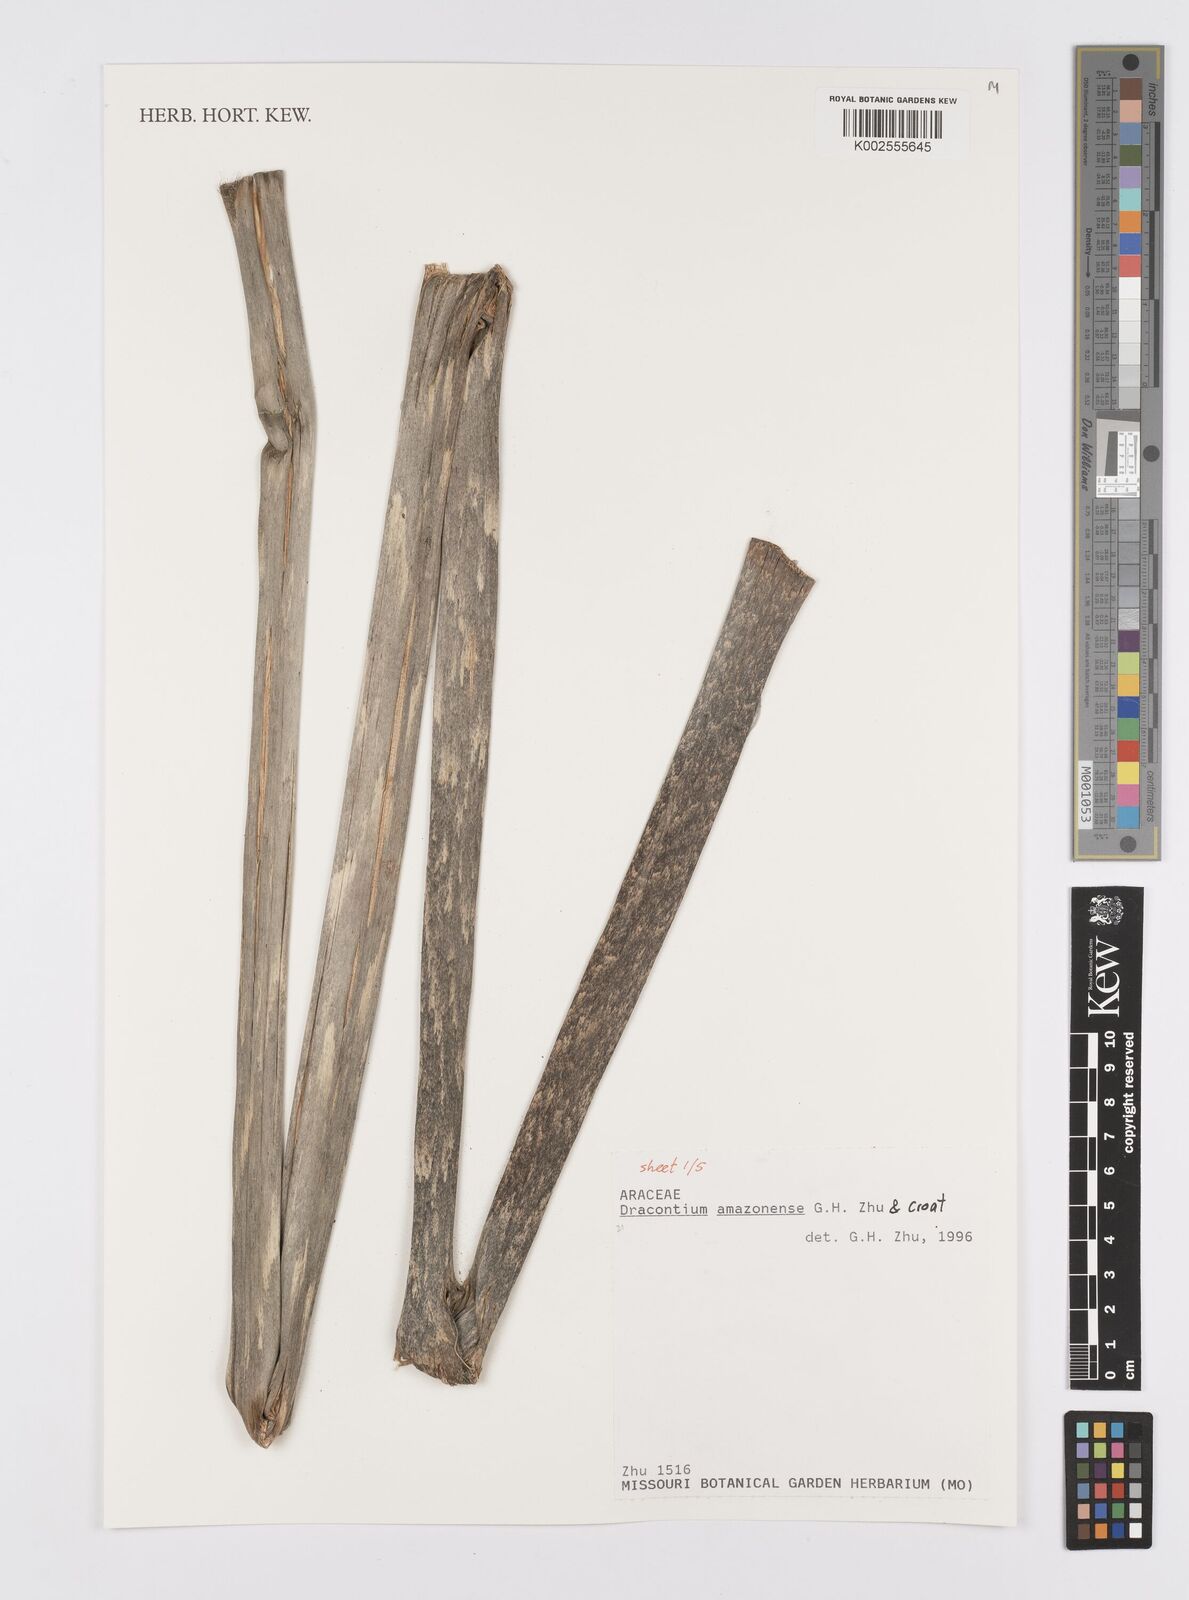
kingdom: Plantae
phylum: Tracheophyta
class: Liliopsida
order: Alismatales
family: Araceae
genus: Dracontium
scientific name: Dracontium amazonense
